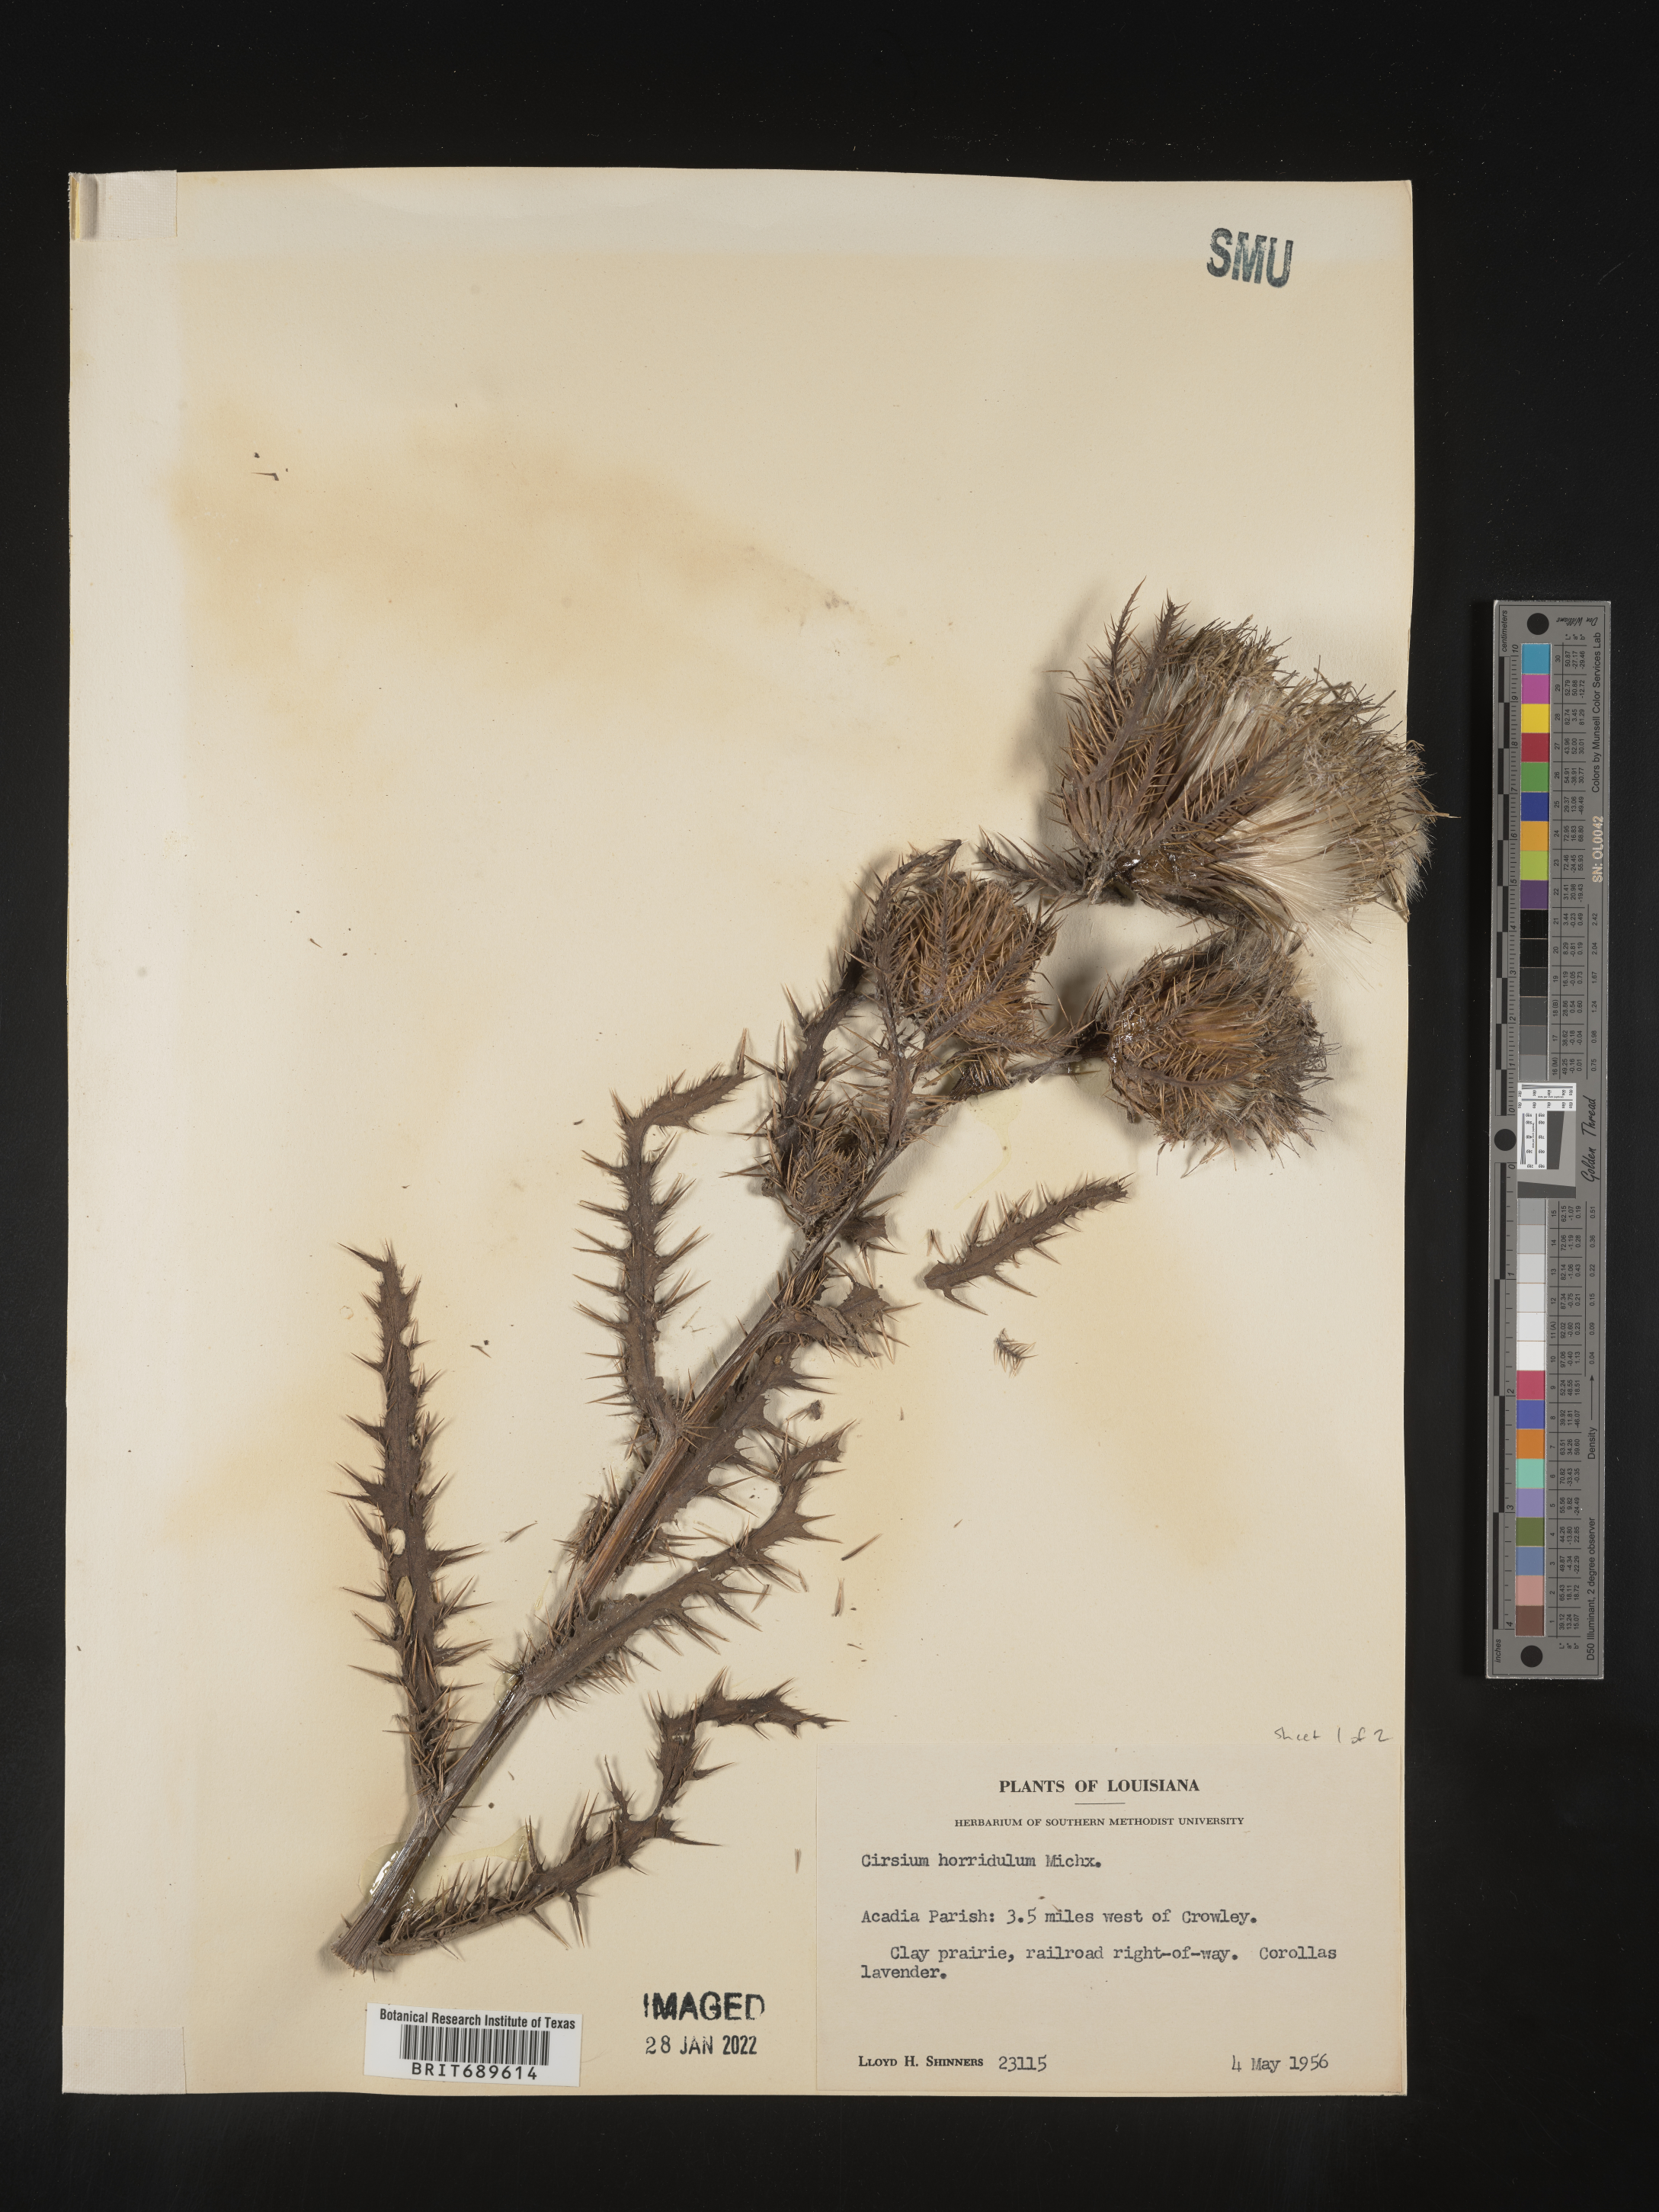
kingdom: Plantae
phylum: Tracheophyta
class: Magnoliopsida
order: Asterales
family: Asteraceae
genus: Cirsium
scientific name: Cirsium horridulum
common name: Bristly thistle
